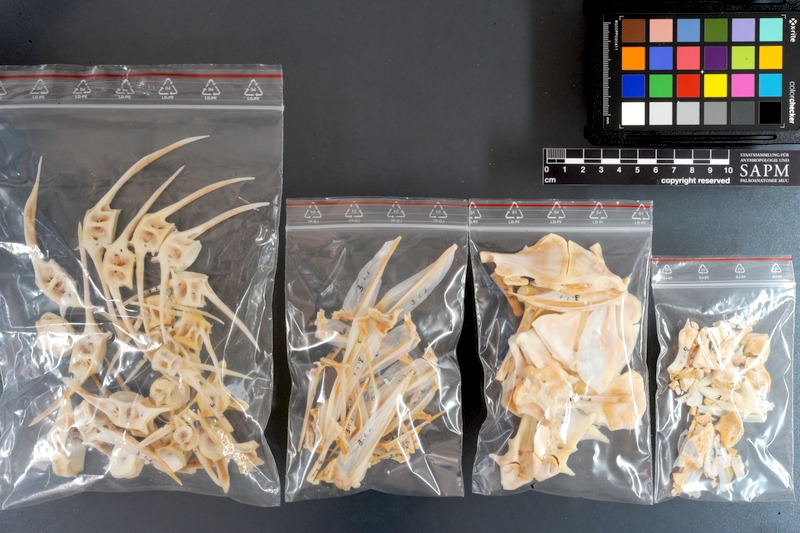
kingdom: Animalia
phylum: Chordata
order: Siluriformes
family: Bagridae
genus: Sperata
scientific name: Sperata seenghala
